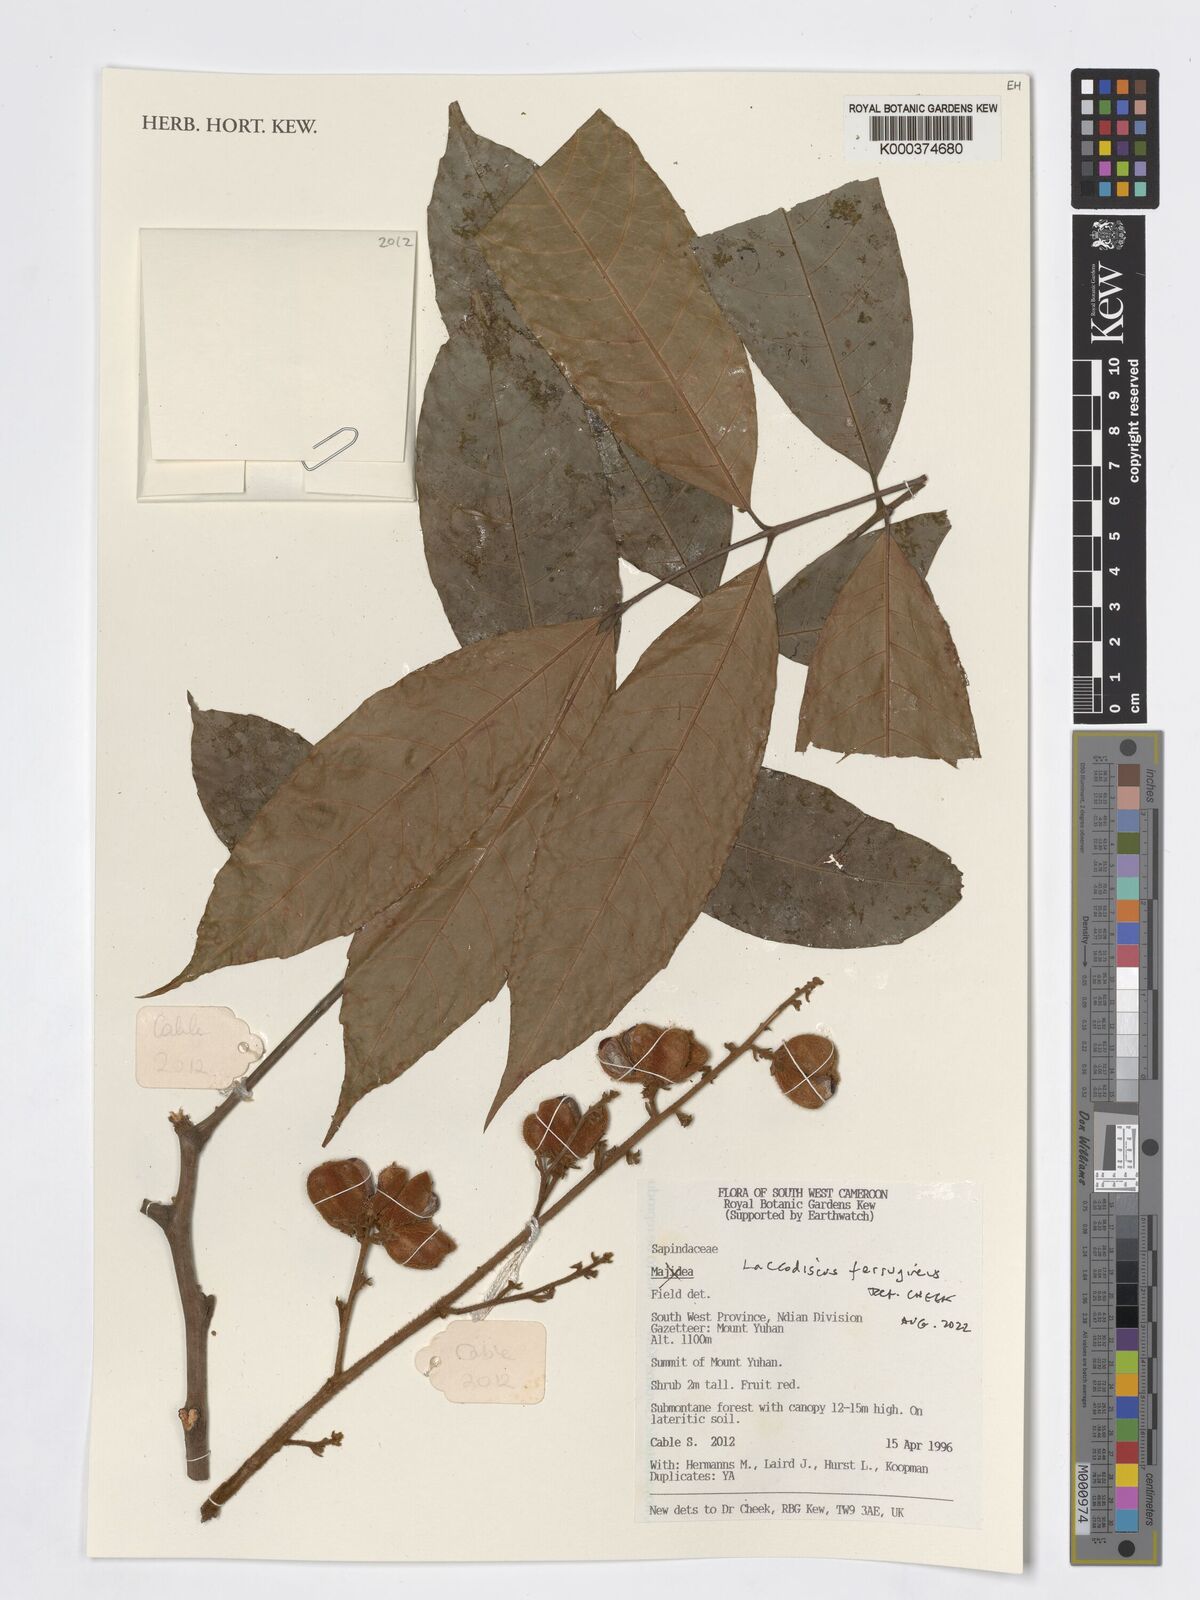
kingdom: Plantae
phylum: Tracheophyta
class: Magnoliopsida
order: Sapindales
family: Sapindaceae
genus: Laccodiscus
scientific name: Laccodiscus ferrugineus
